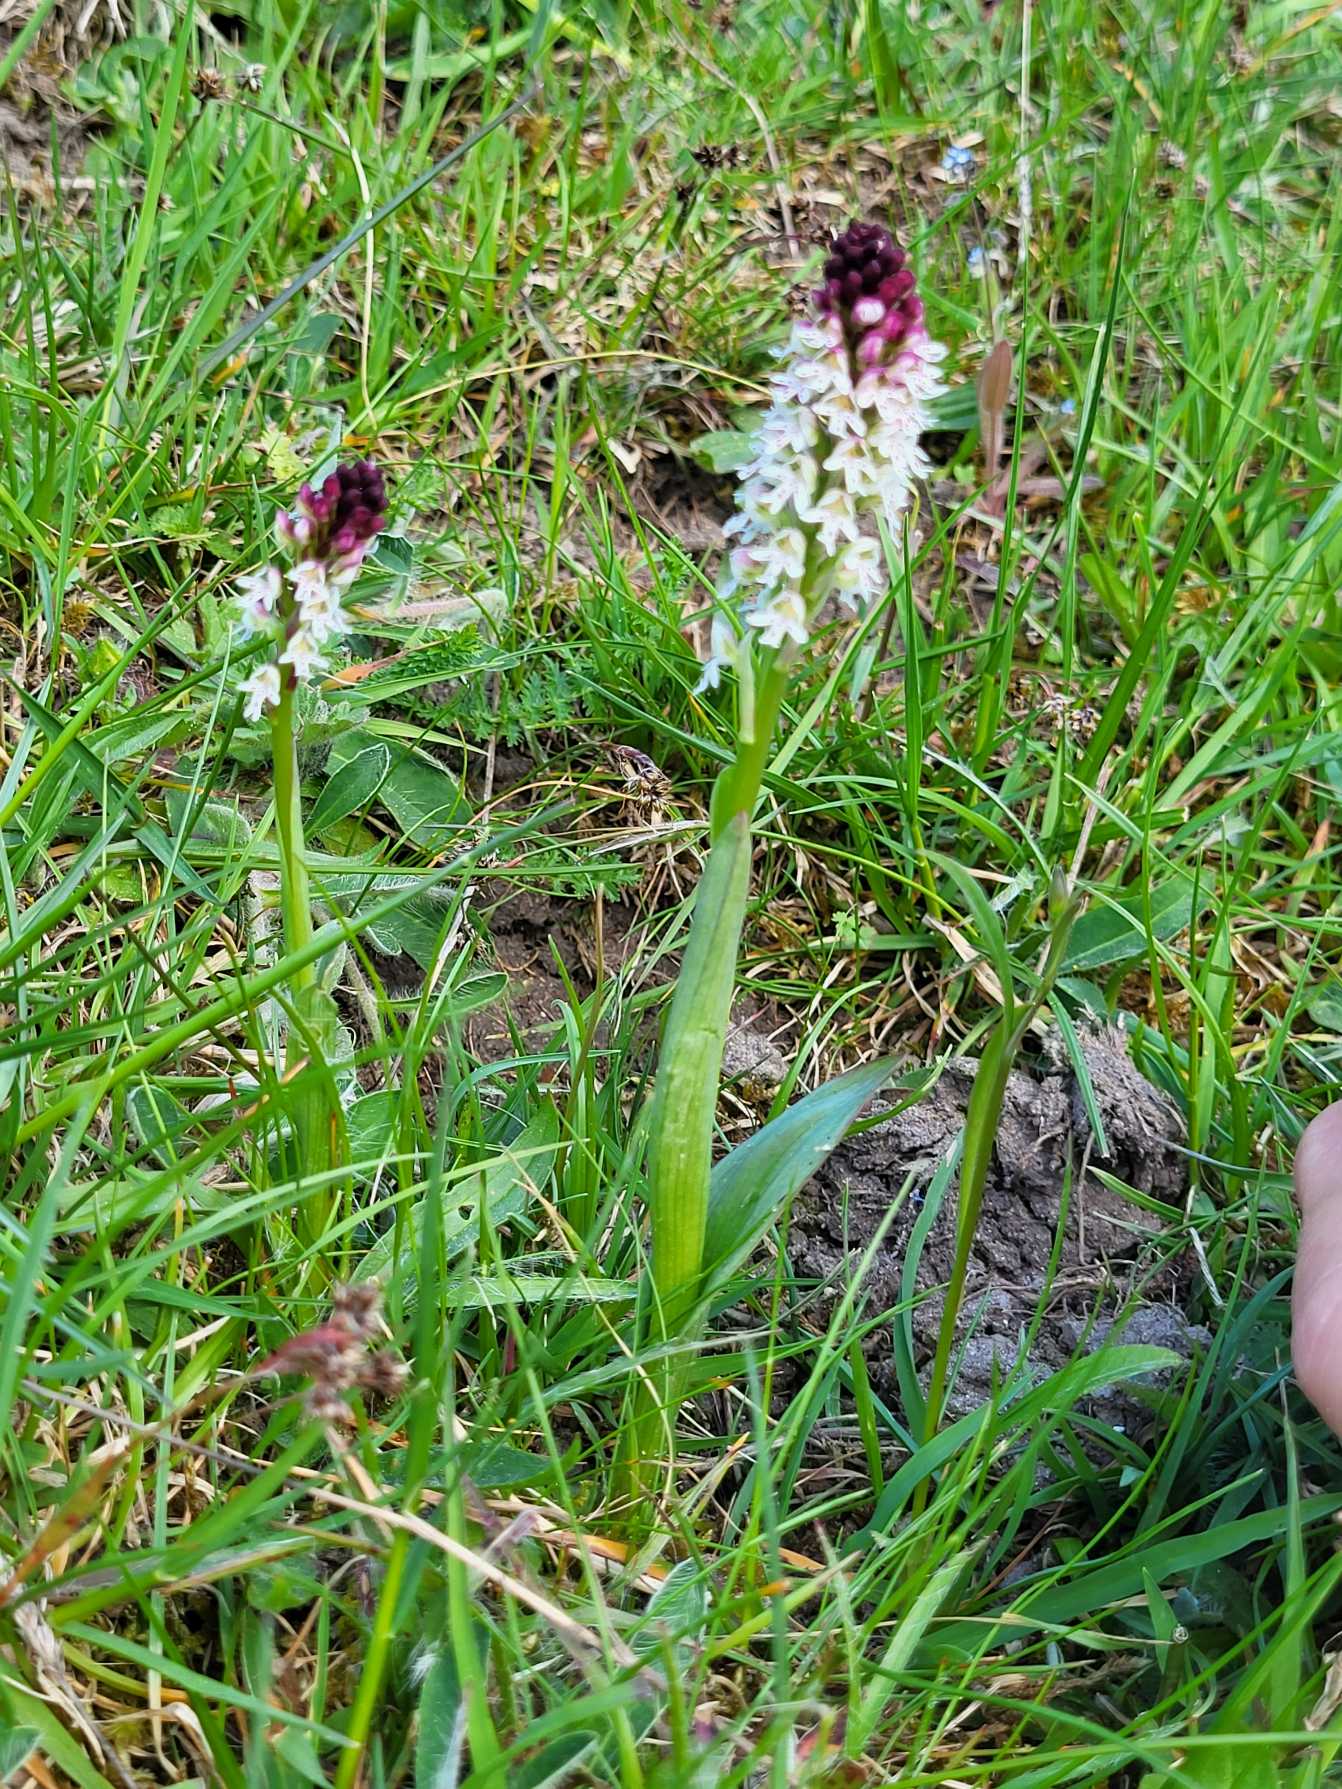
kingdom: Plantae
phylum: Tracheophyta
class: Liliopsida
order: Asparagales
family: Orchidaceae
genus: Neotinea
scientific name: Neotinea ustulata
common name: Bakkegøgeurt
